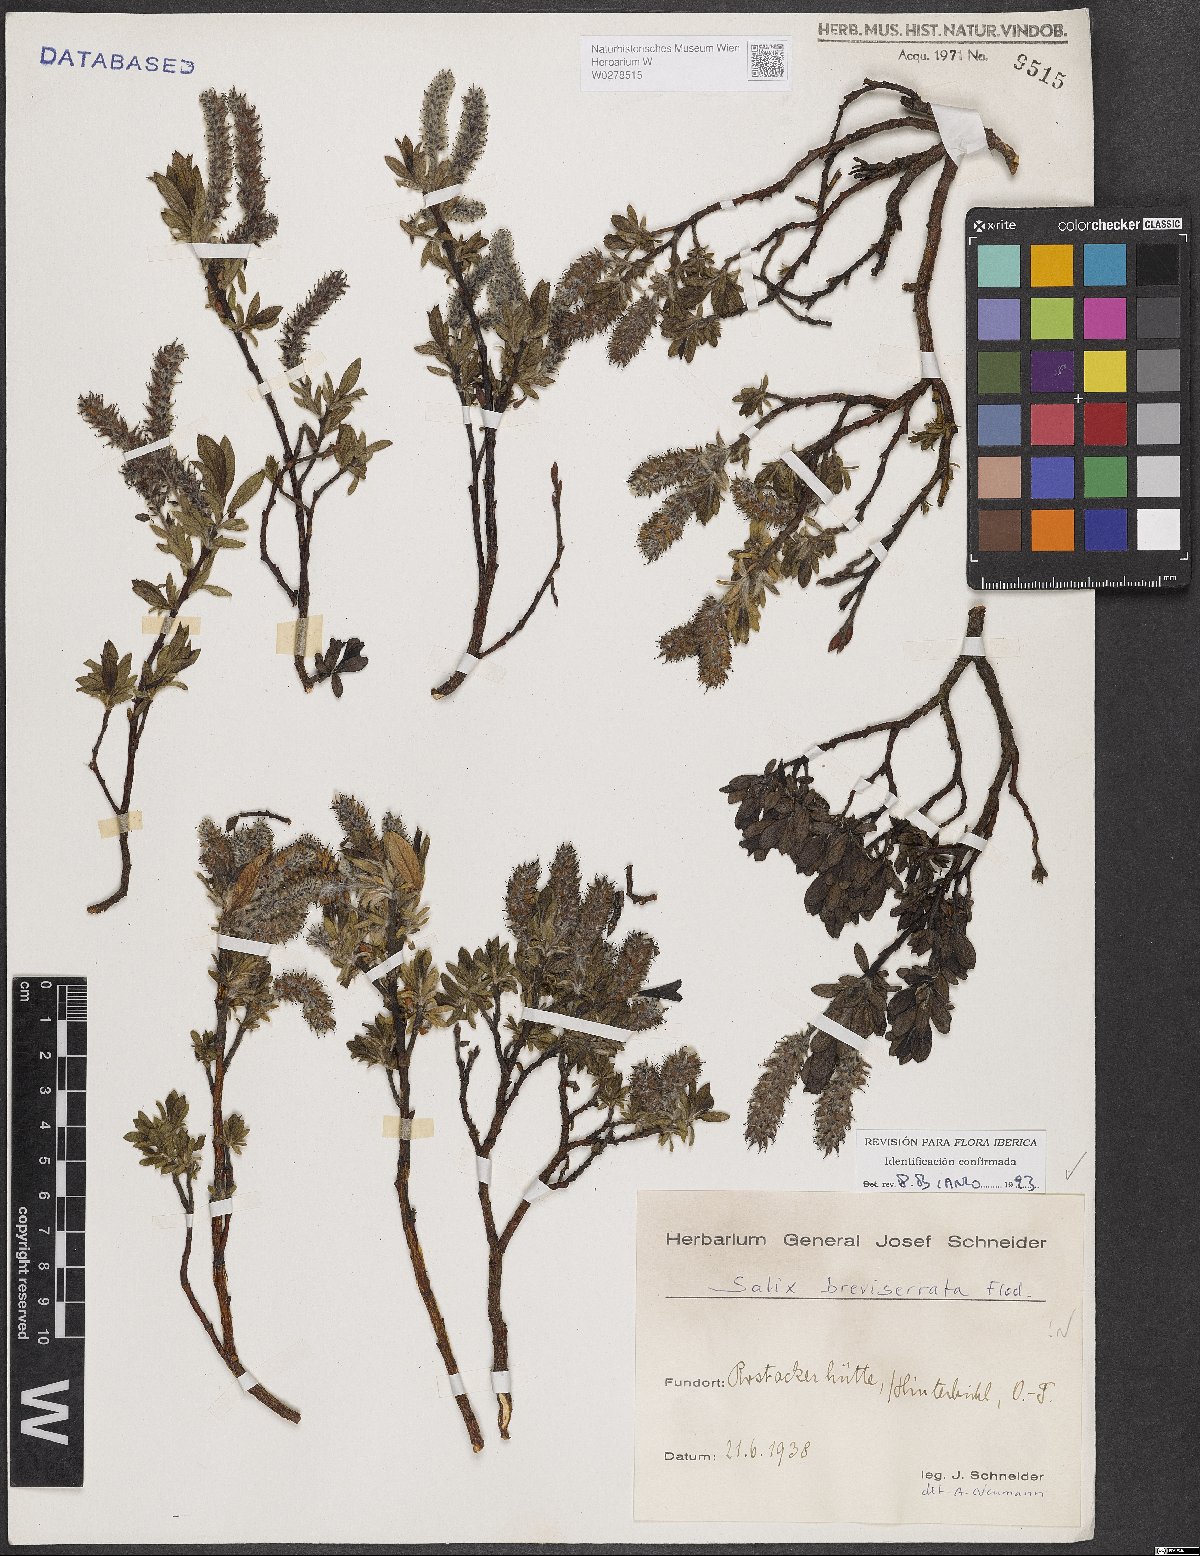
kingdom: Plantae
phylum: Tracheophyta
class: Magnoliopsida
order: Malpighiales
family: Salicaceae
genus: Salix
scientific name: Salix breviserrata
